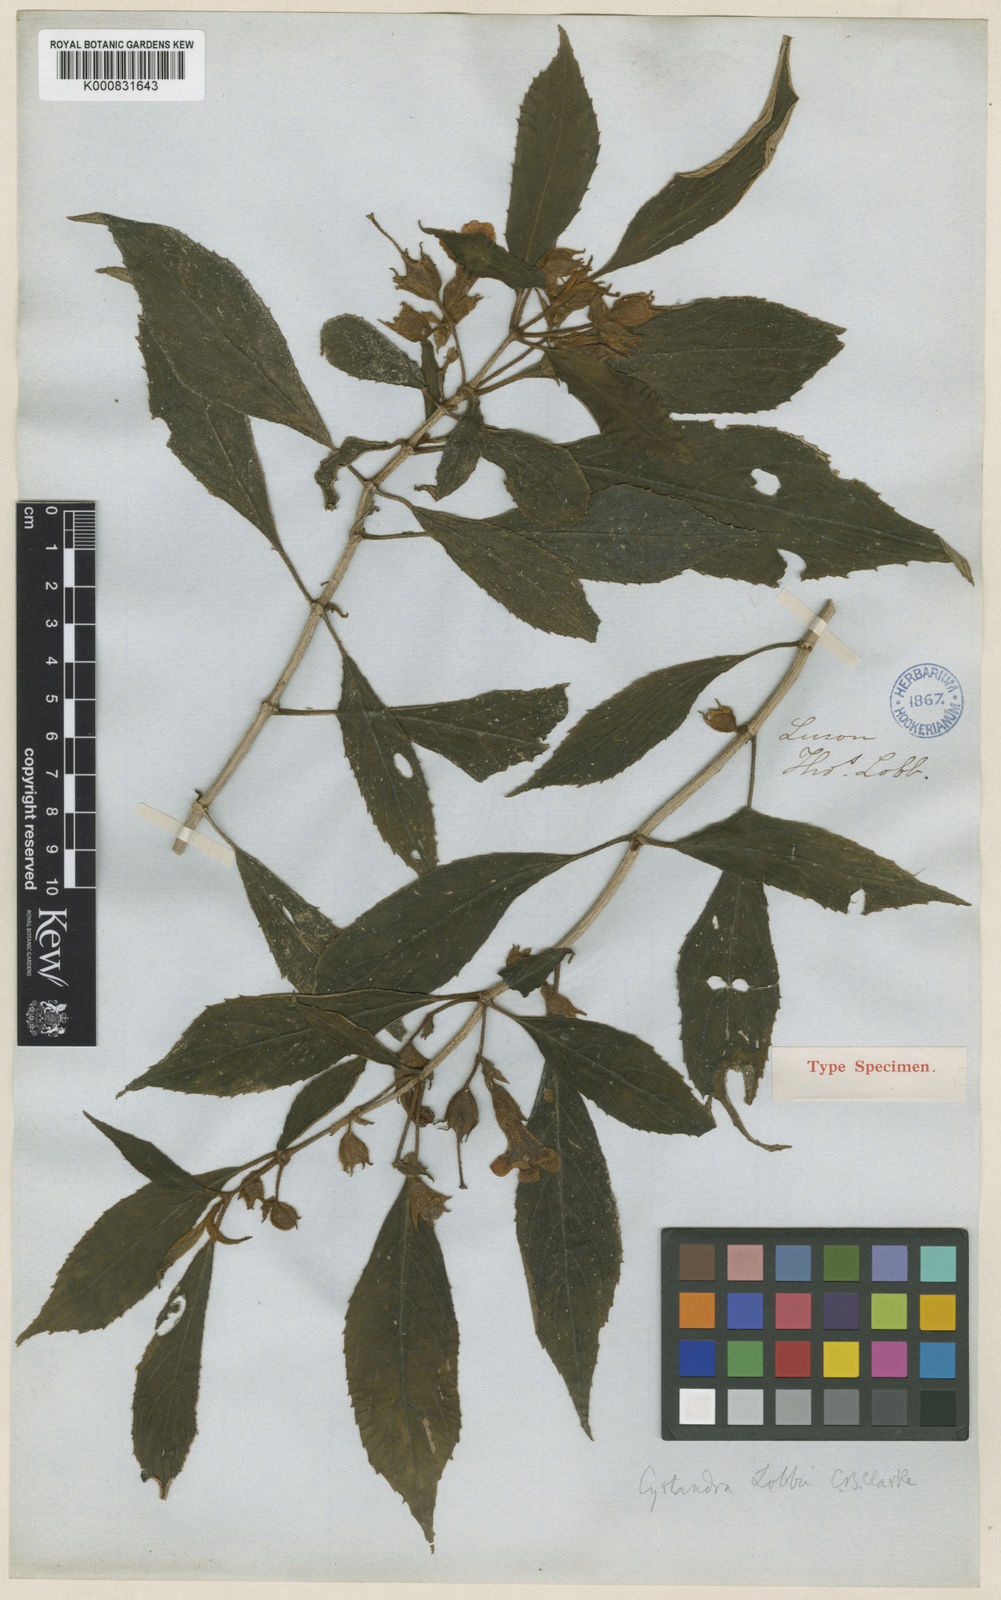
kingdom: Plantae
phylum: Tracheophyta
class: Magnoliopsida
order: Lamiales
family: Gesneriaceae
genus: Cyrtandra
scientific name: Cyrtandra lobbii
